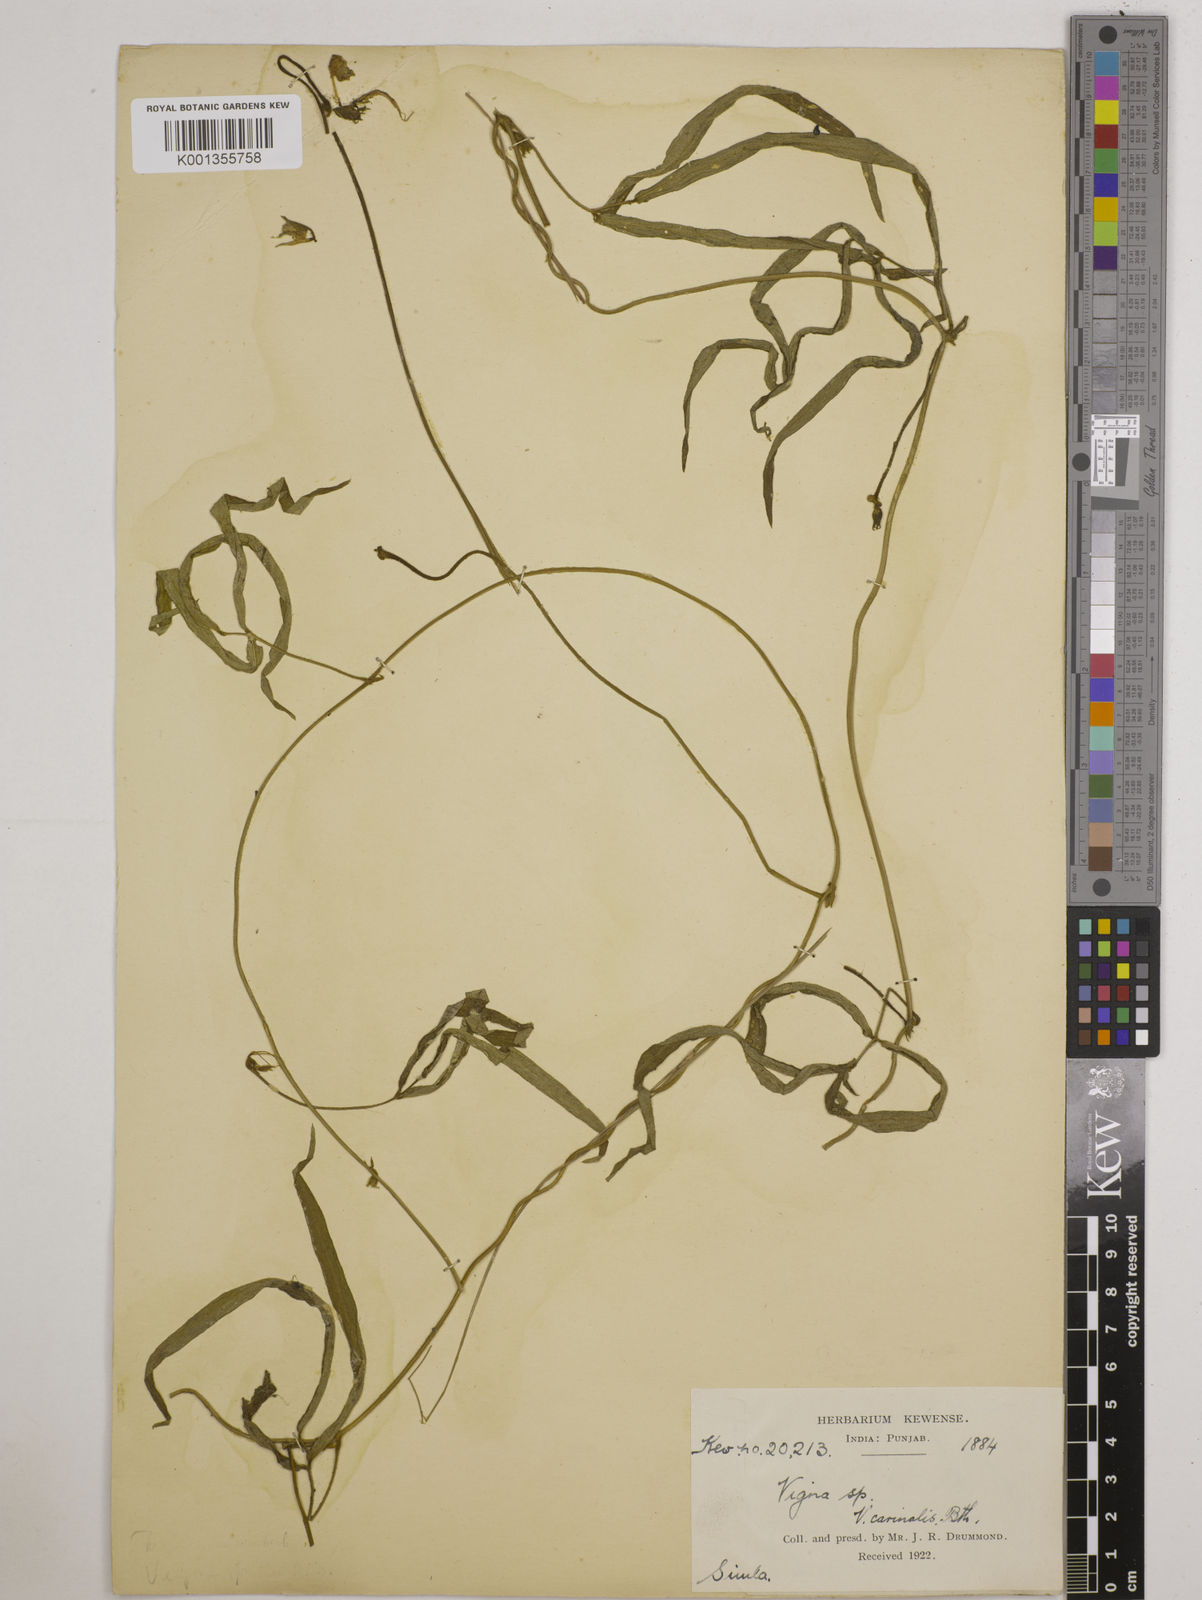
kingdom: Plantae
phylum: Tracheophyta
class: Magnoliopsida
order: Fabales
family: Fabaceae
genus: Vigna
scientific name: Vigna vexillata
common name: Zombi pea
